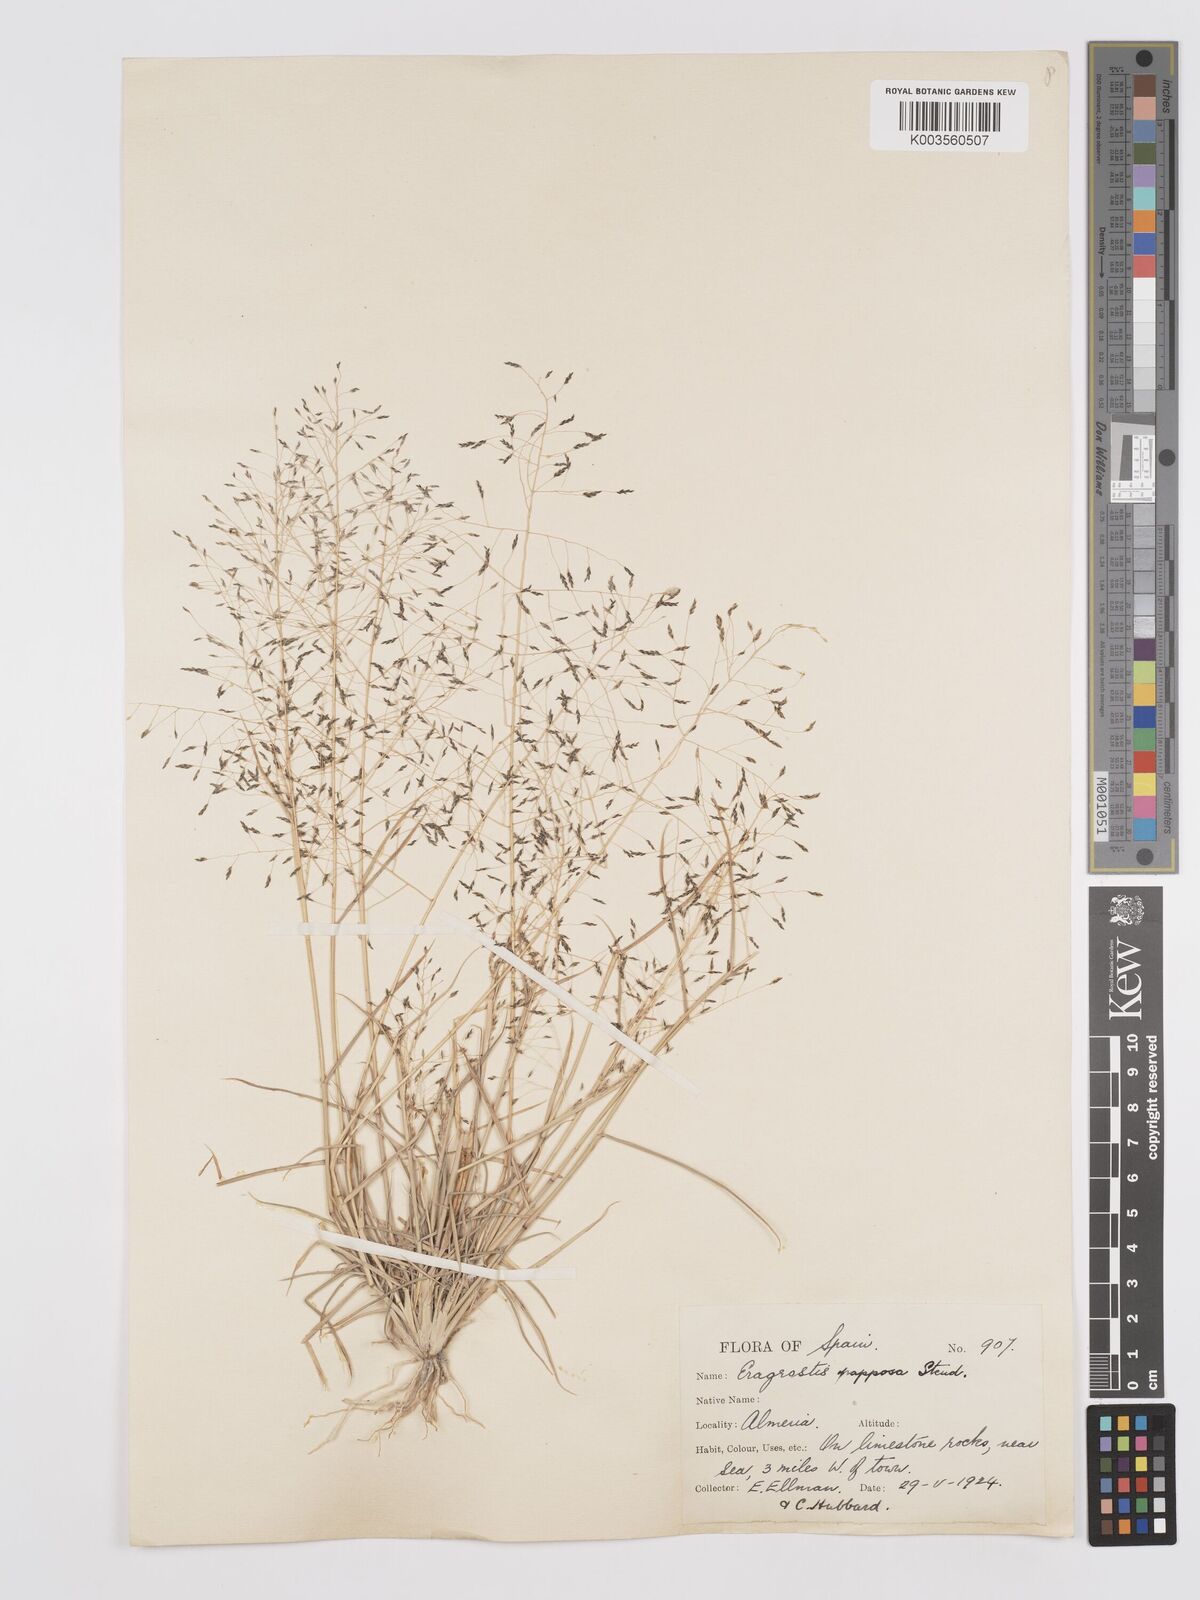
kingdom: Plantae
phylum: Tracheophyta
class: Liliopsida
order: Poales
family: Poaceae
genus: Eragrostis
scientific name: Eragrostis papposa
